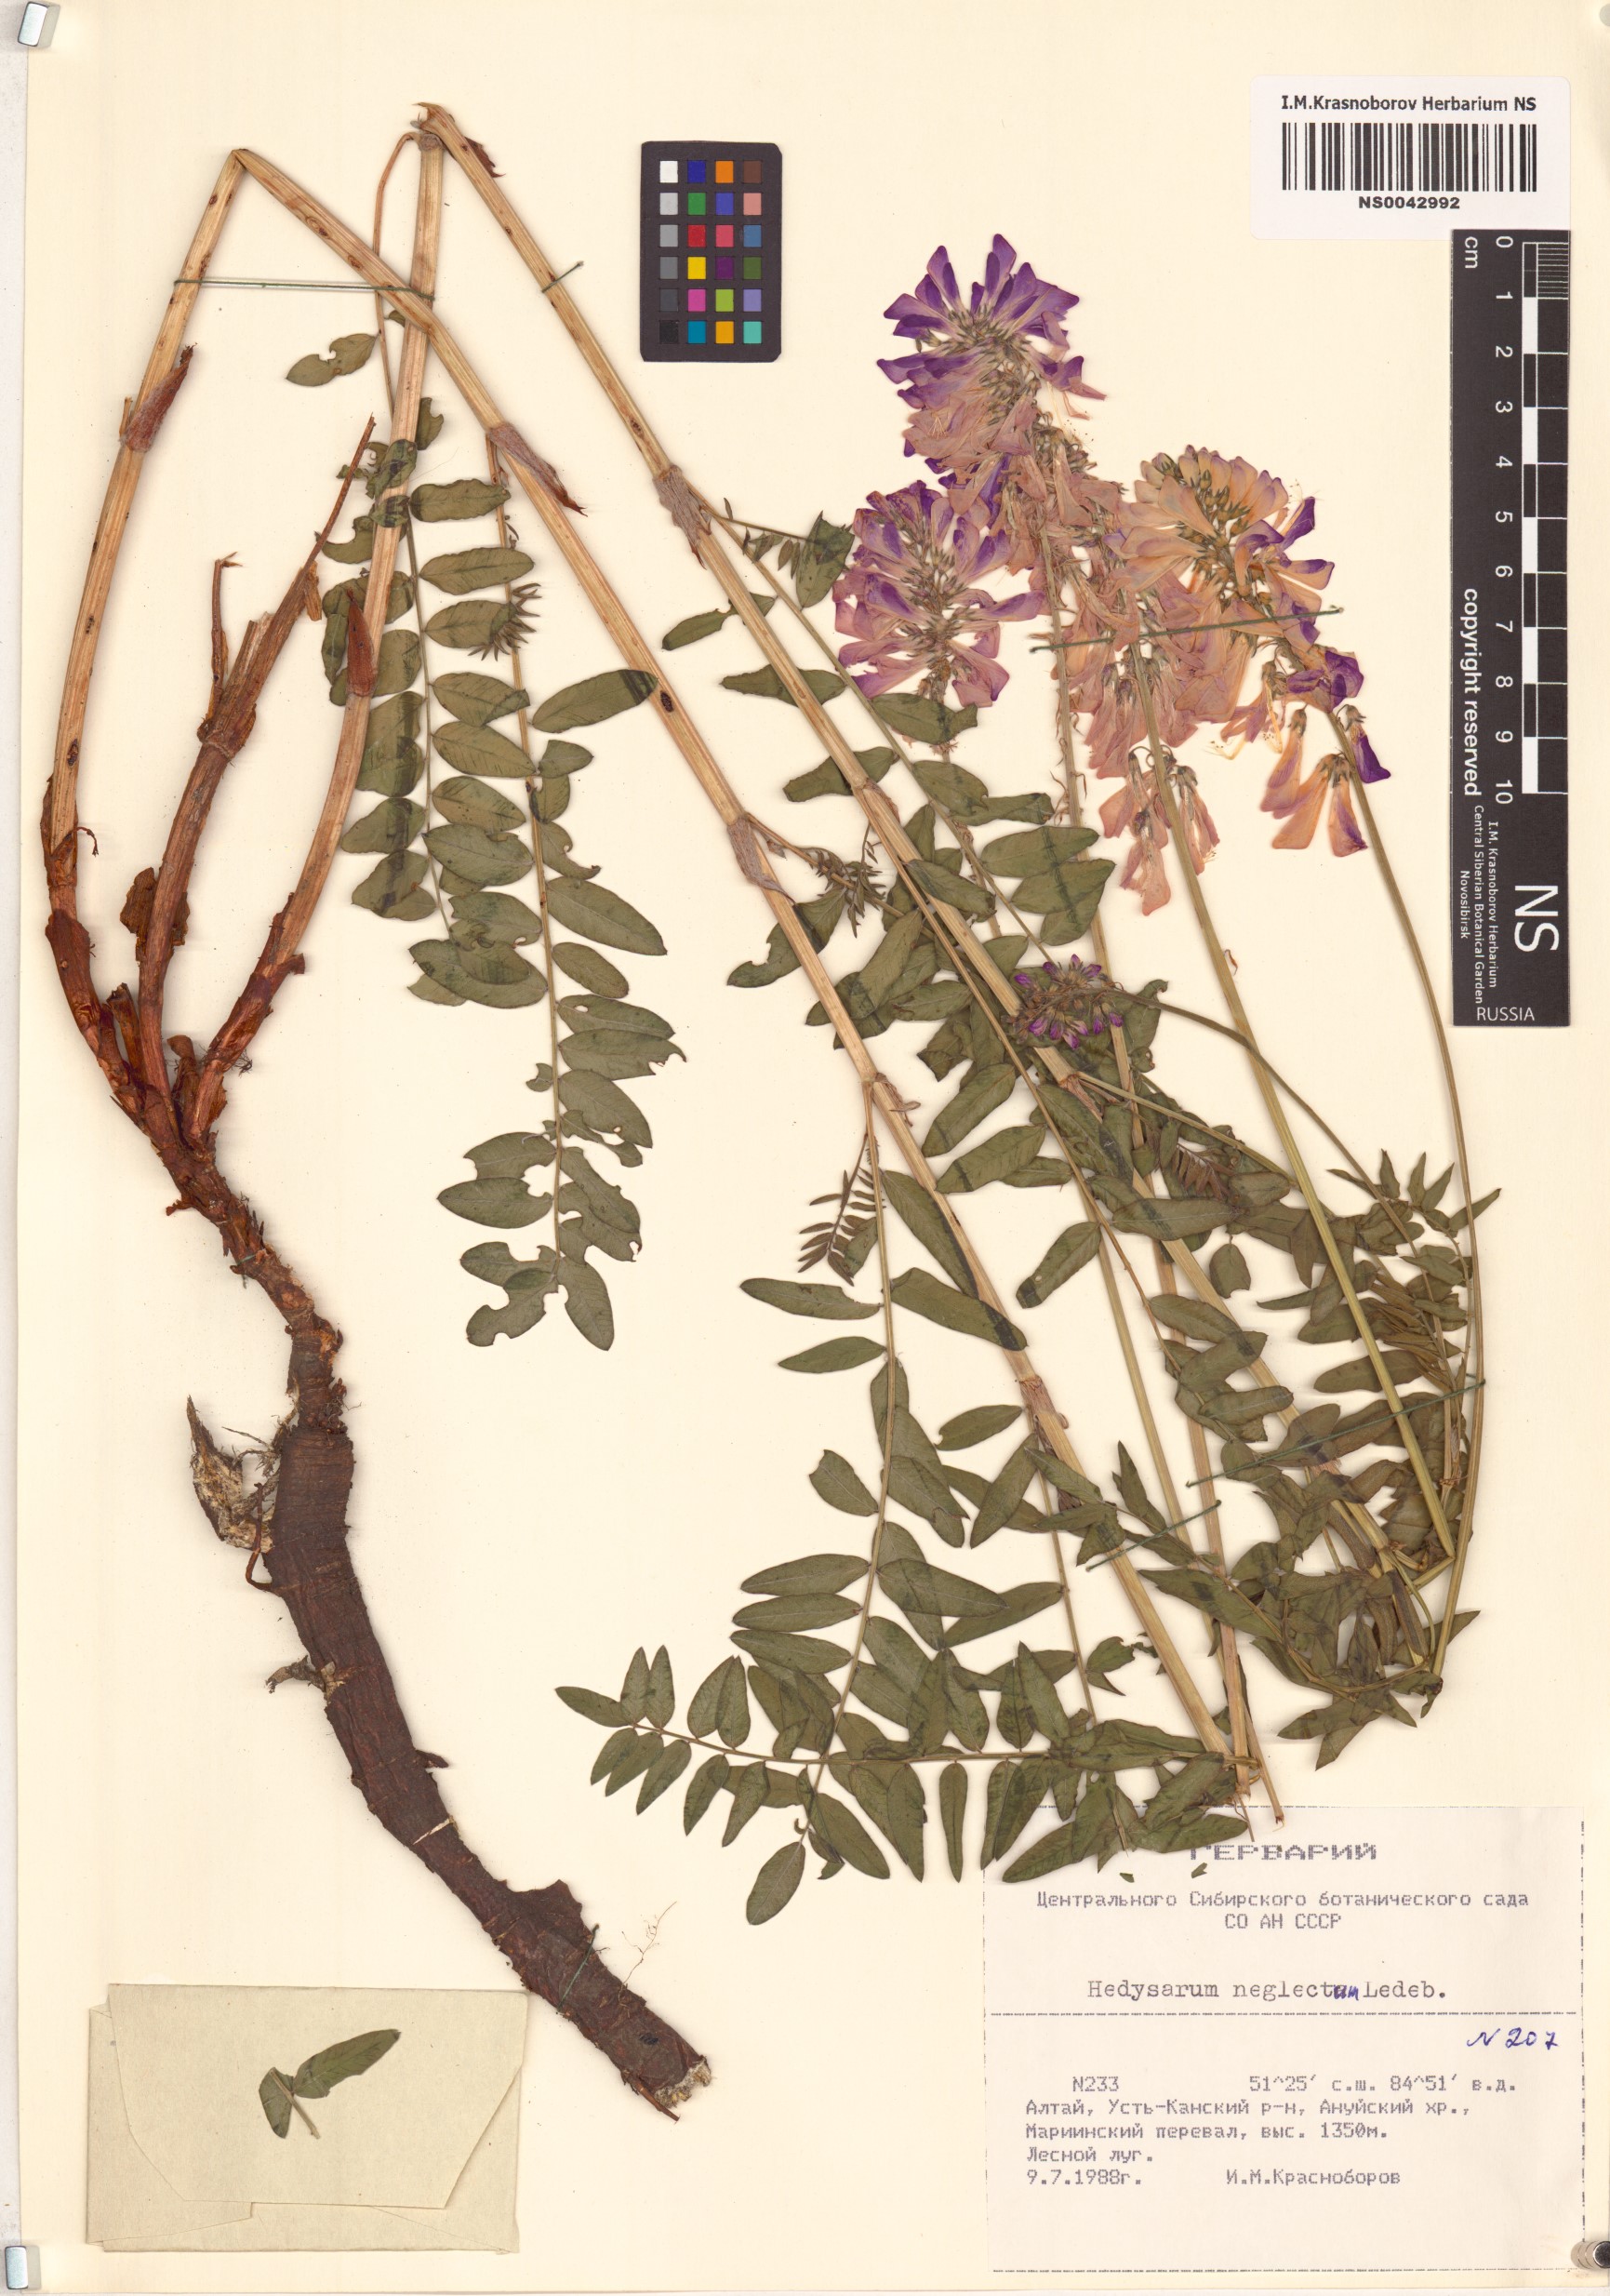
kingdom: Plantae
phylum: Tracheophyta
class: Magnoliopsida
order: Fabales
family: Fabaceae
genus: Hedysarum
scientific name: Hedysarum neglectum
